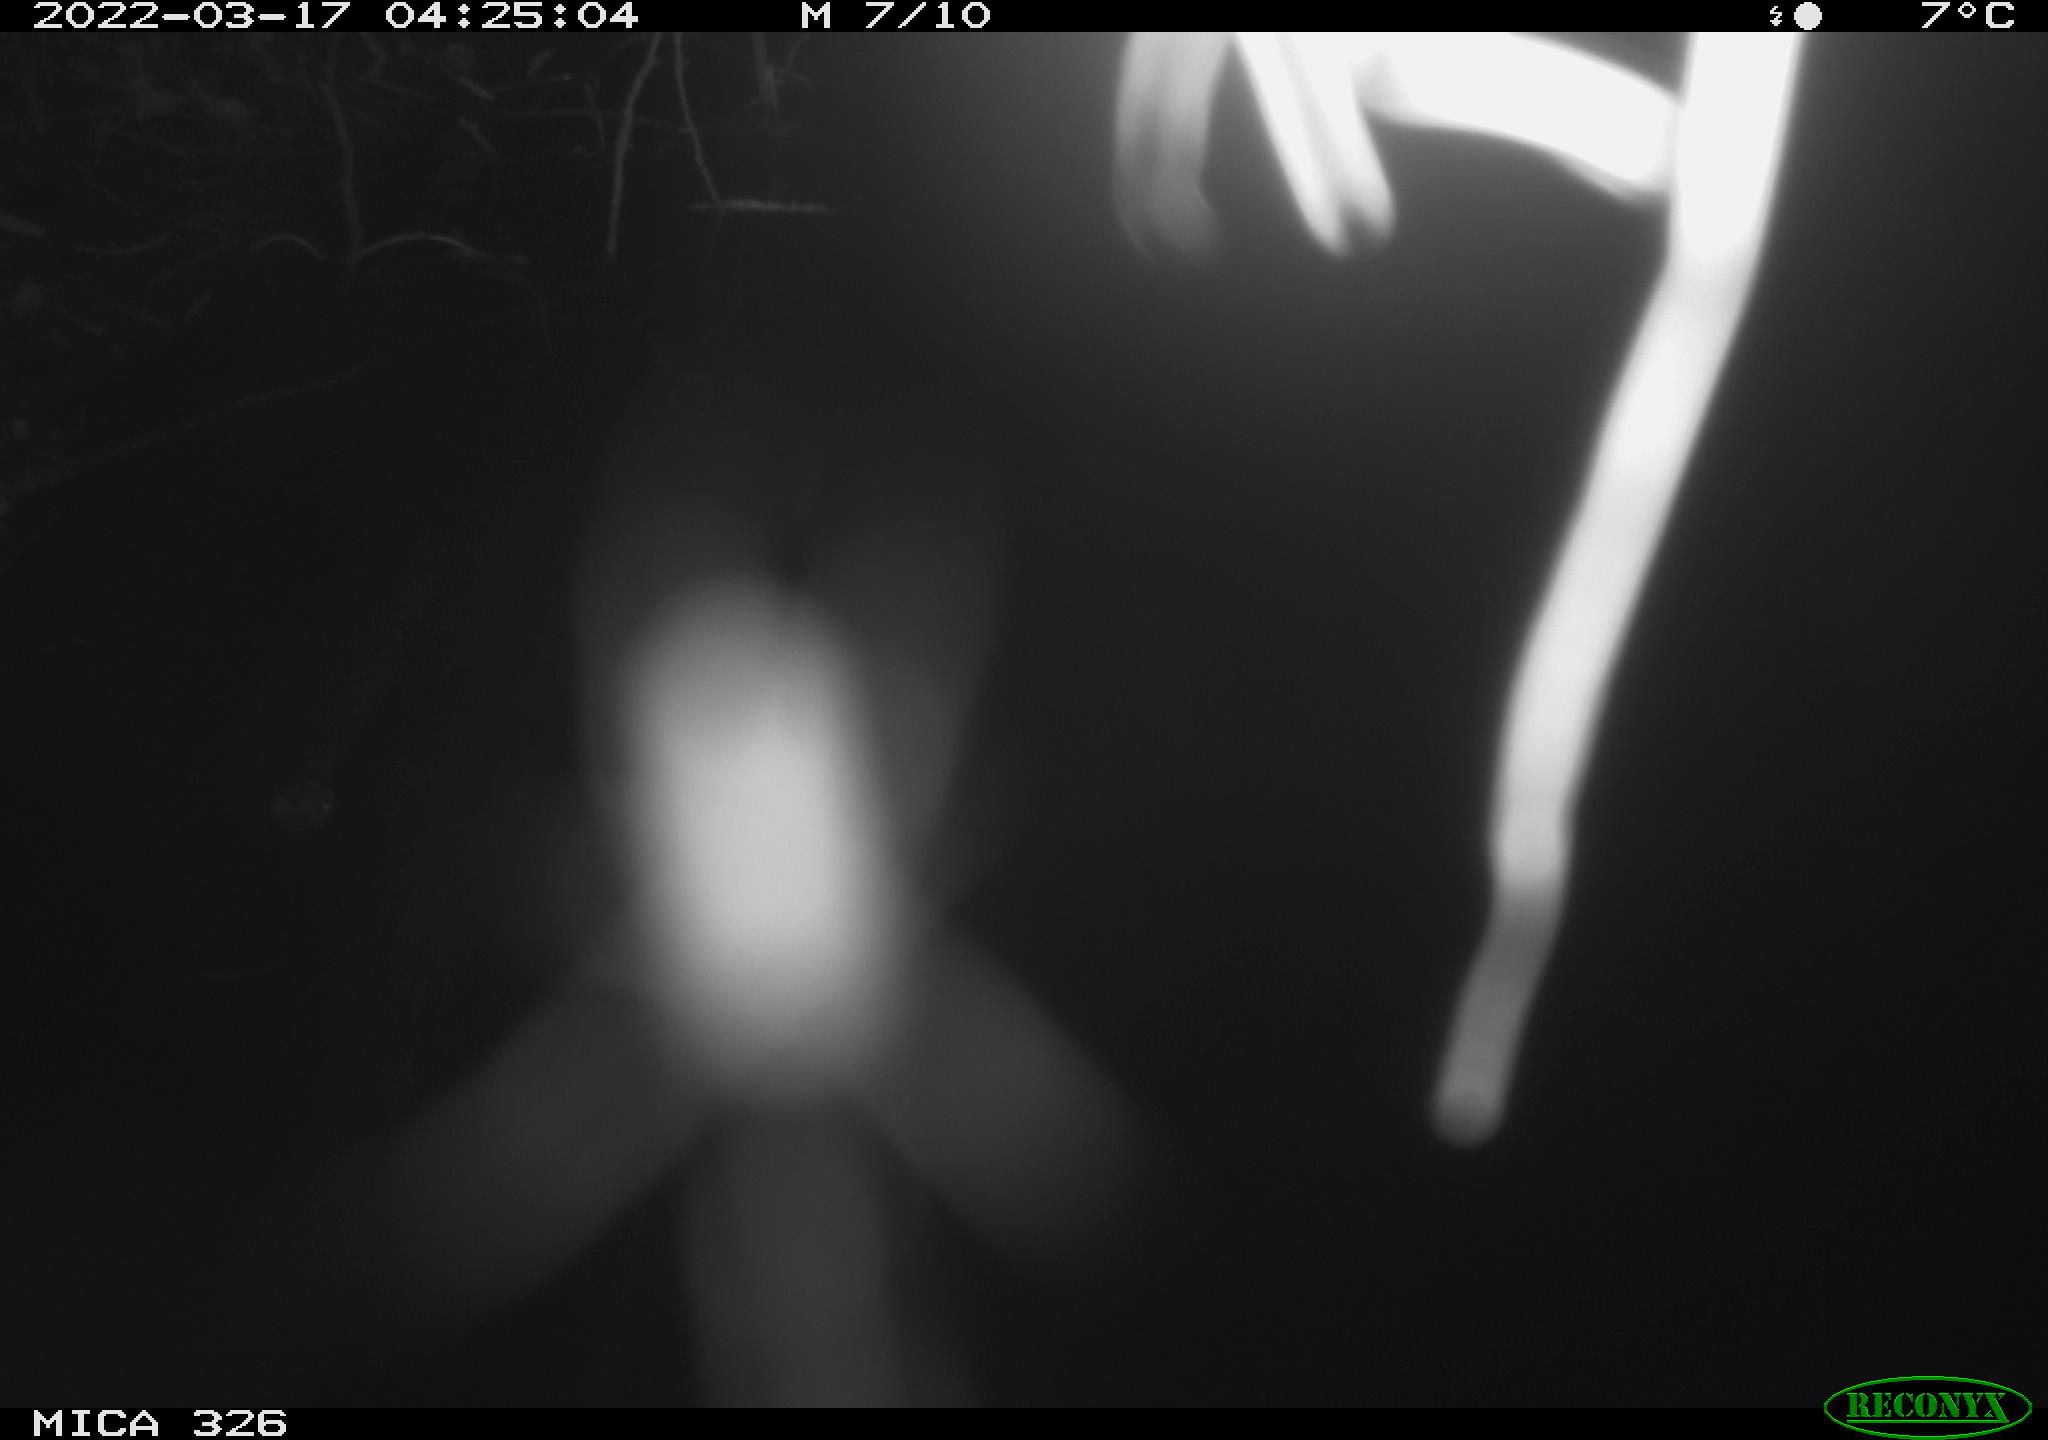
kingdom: Animalia
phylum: Chordata
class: Mammalia
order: Rodentia
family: Muridae
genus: Rattus
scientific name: Rattus norvegicus
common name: Brown rat
